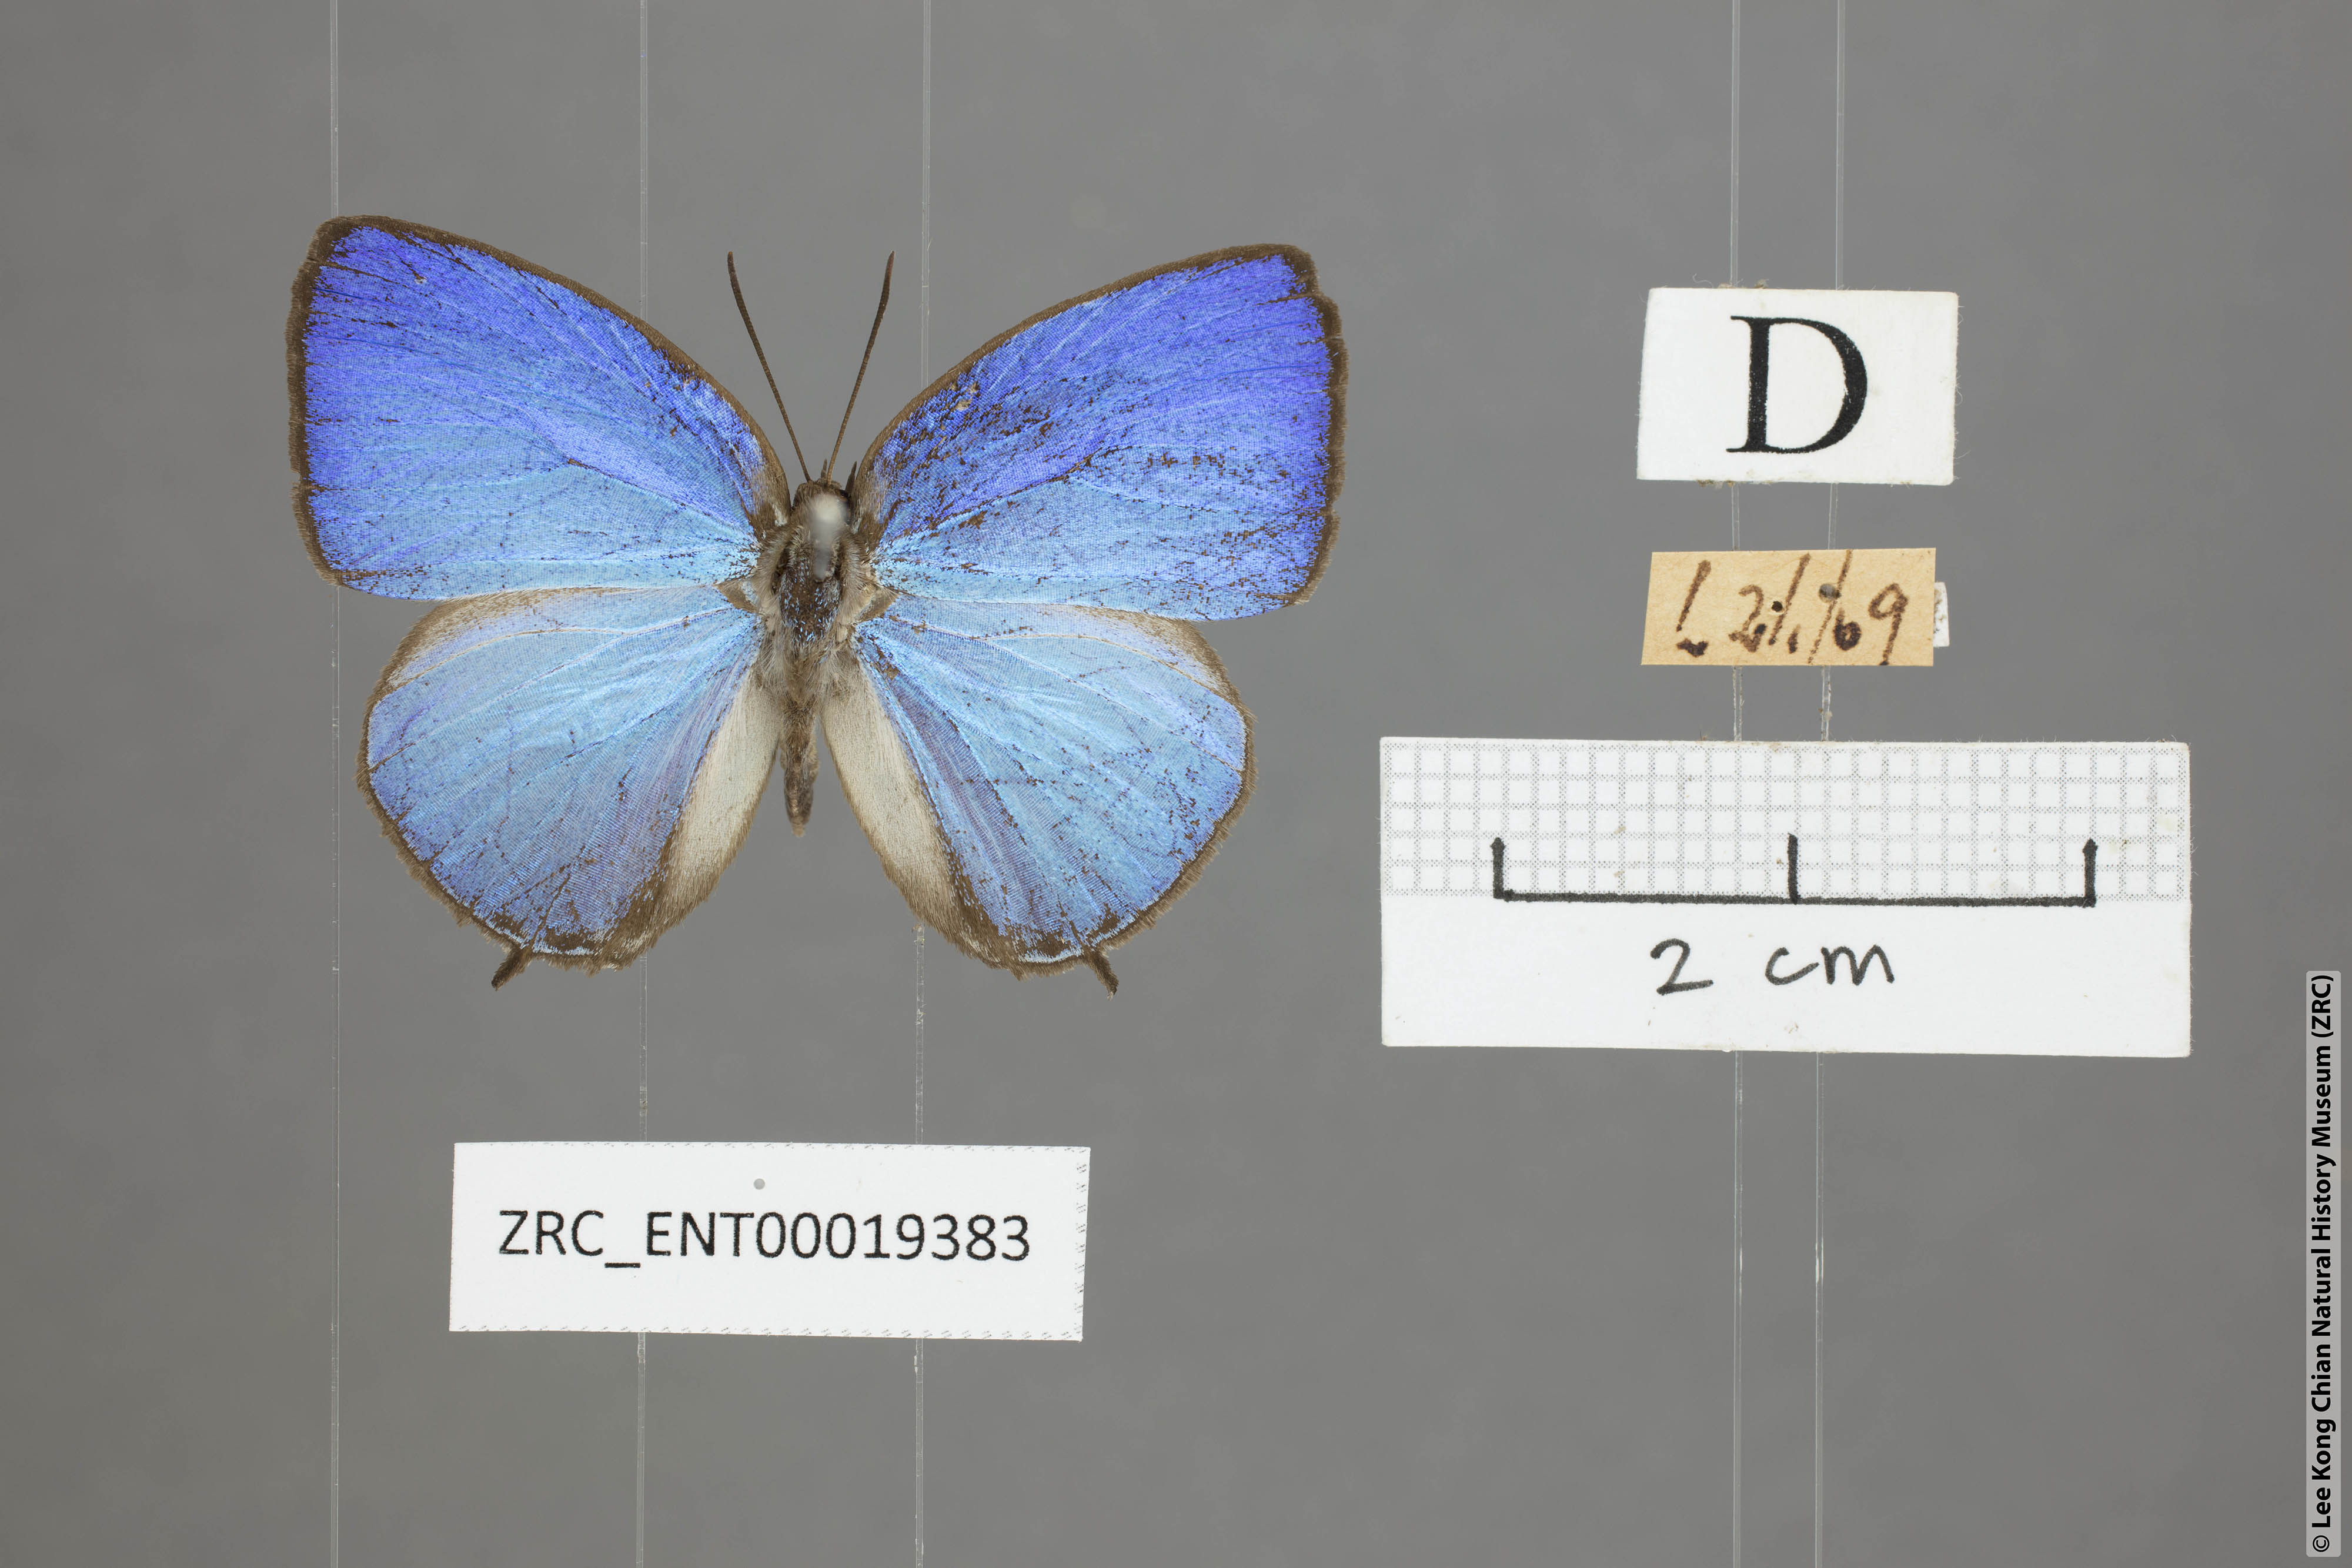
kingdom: Animalia
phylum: Arthropoda
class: Insecta
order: Lepidoptera
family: Lycaenidae
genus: Arhopala
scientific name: Arhopala democritus
